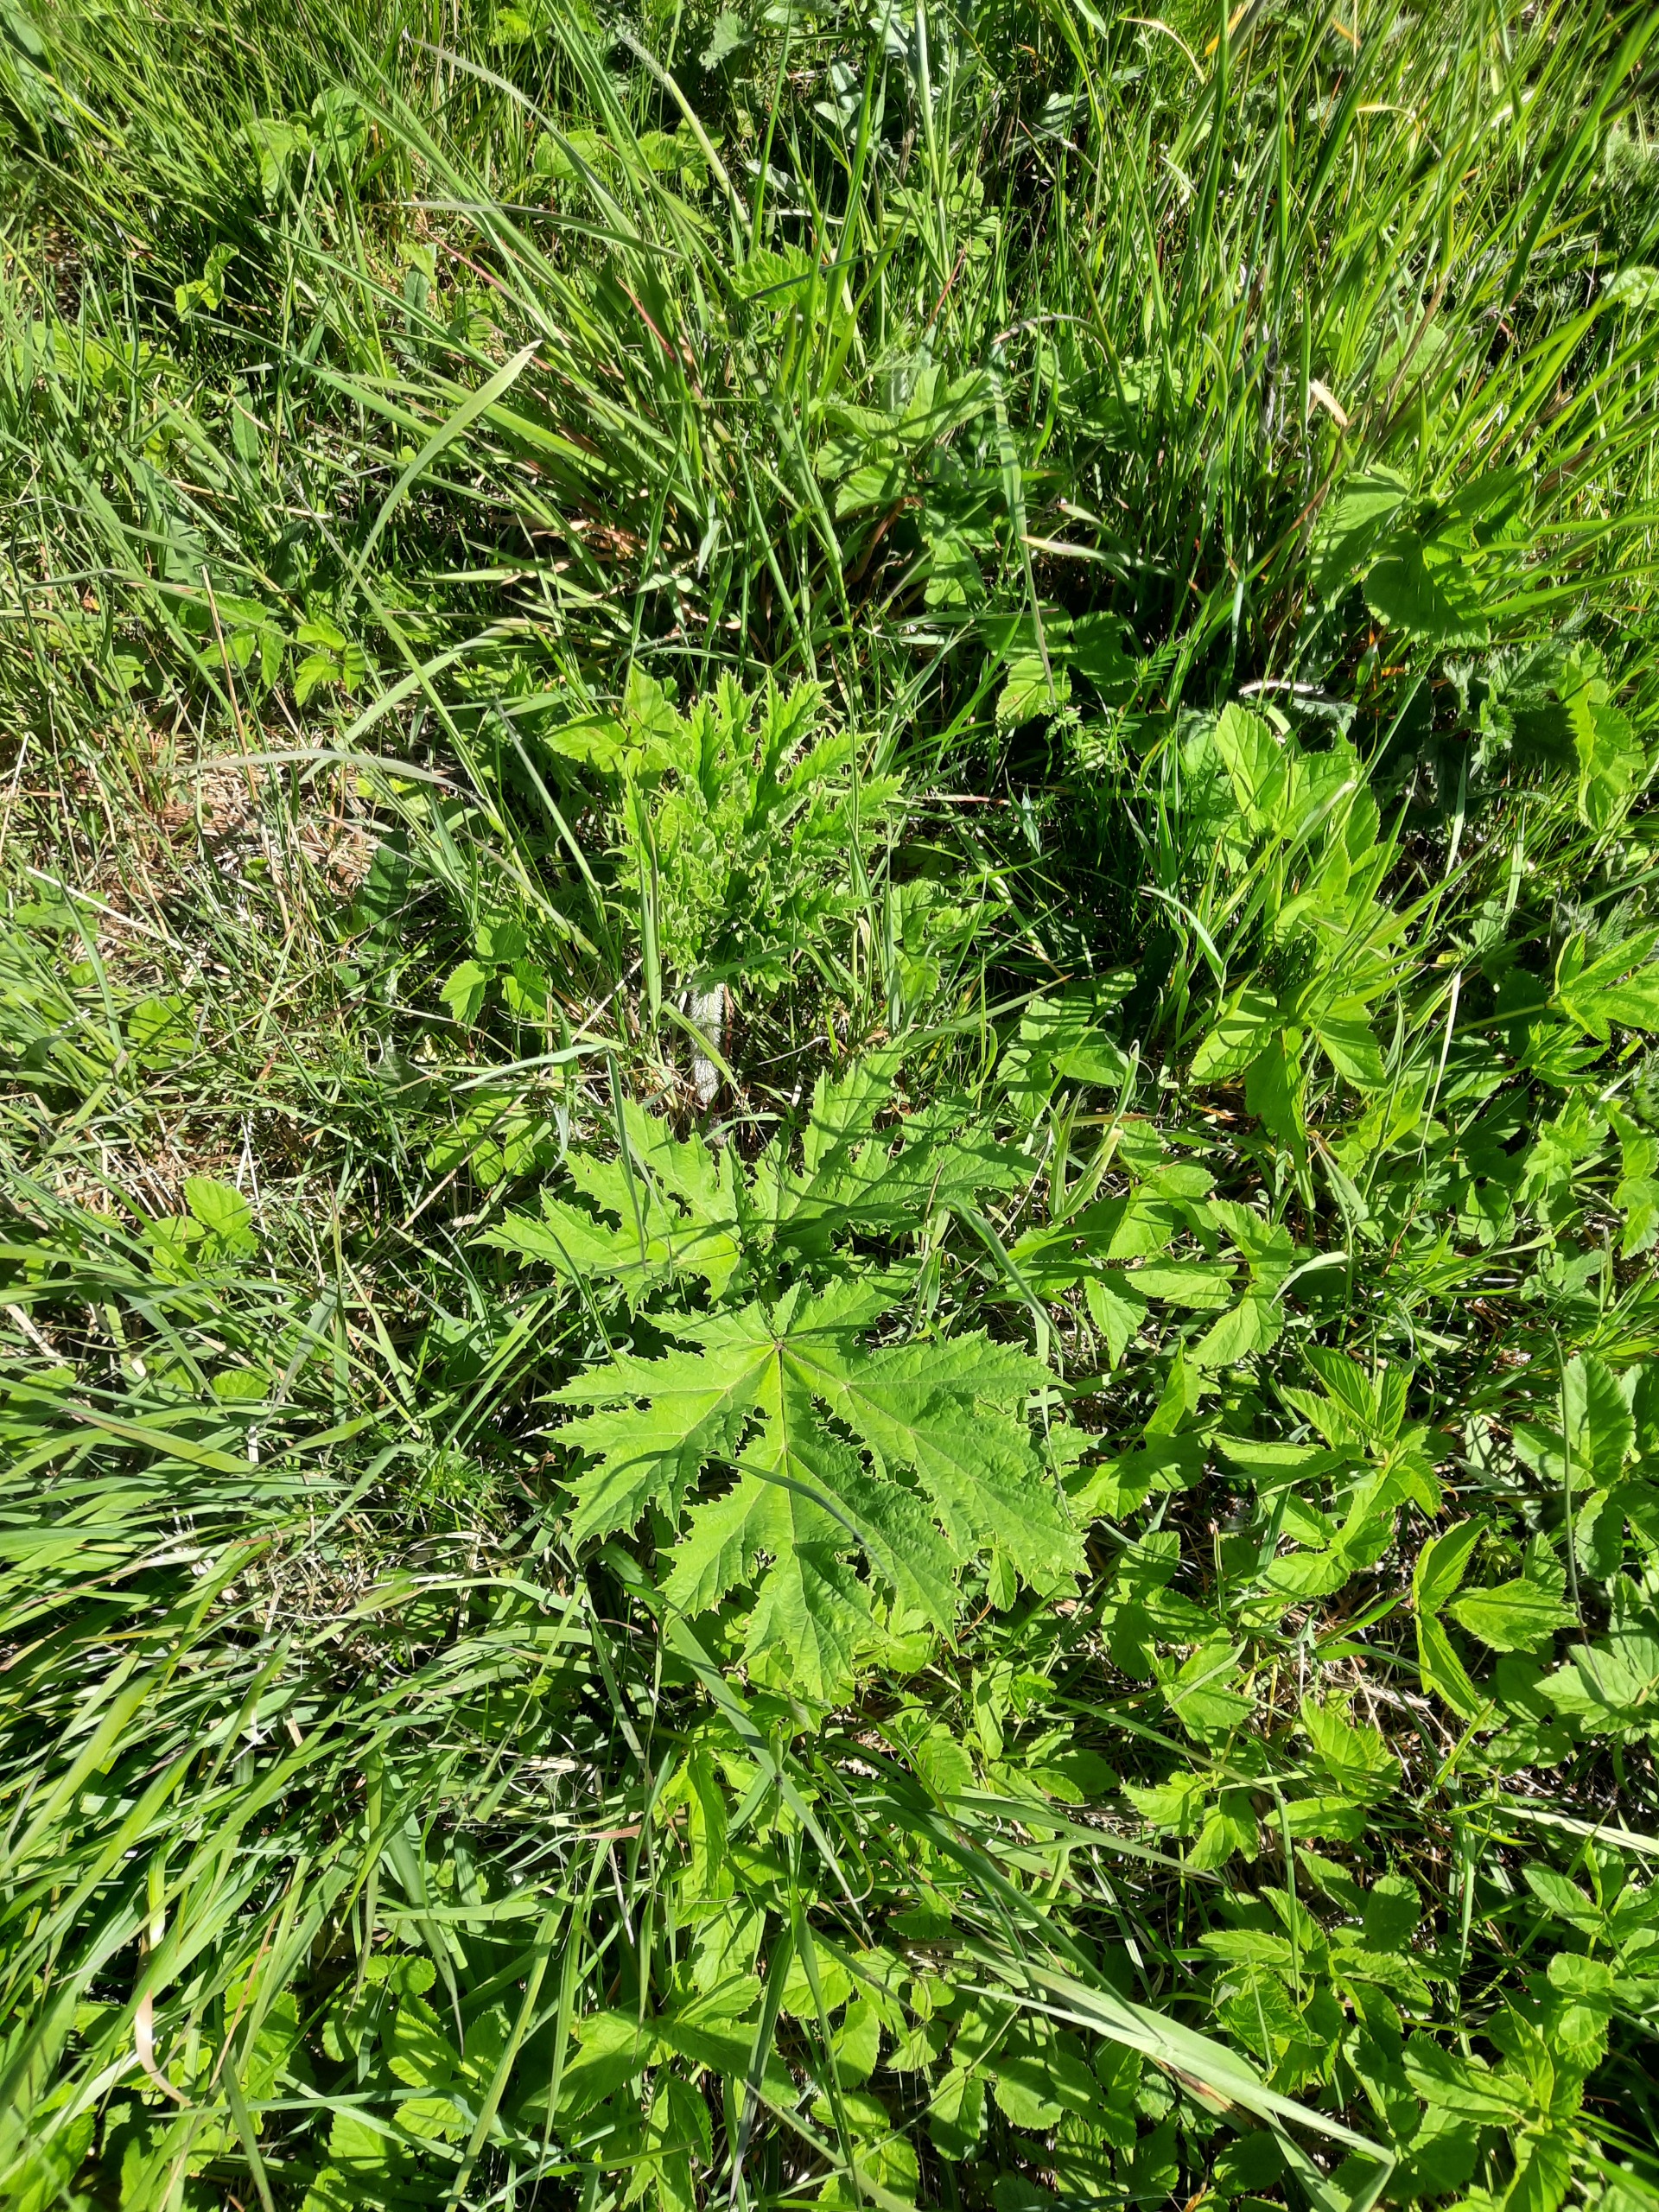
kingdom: Plantae
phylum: Tracheophyta
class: Magnoliopsida
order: Apiales
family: Apiaceae
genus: Heracleum
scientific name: Heracleum mantegazzianum
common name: Kæmpe-bjørneklo
